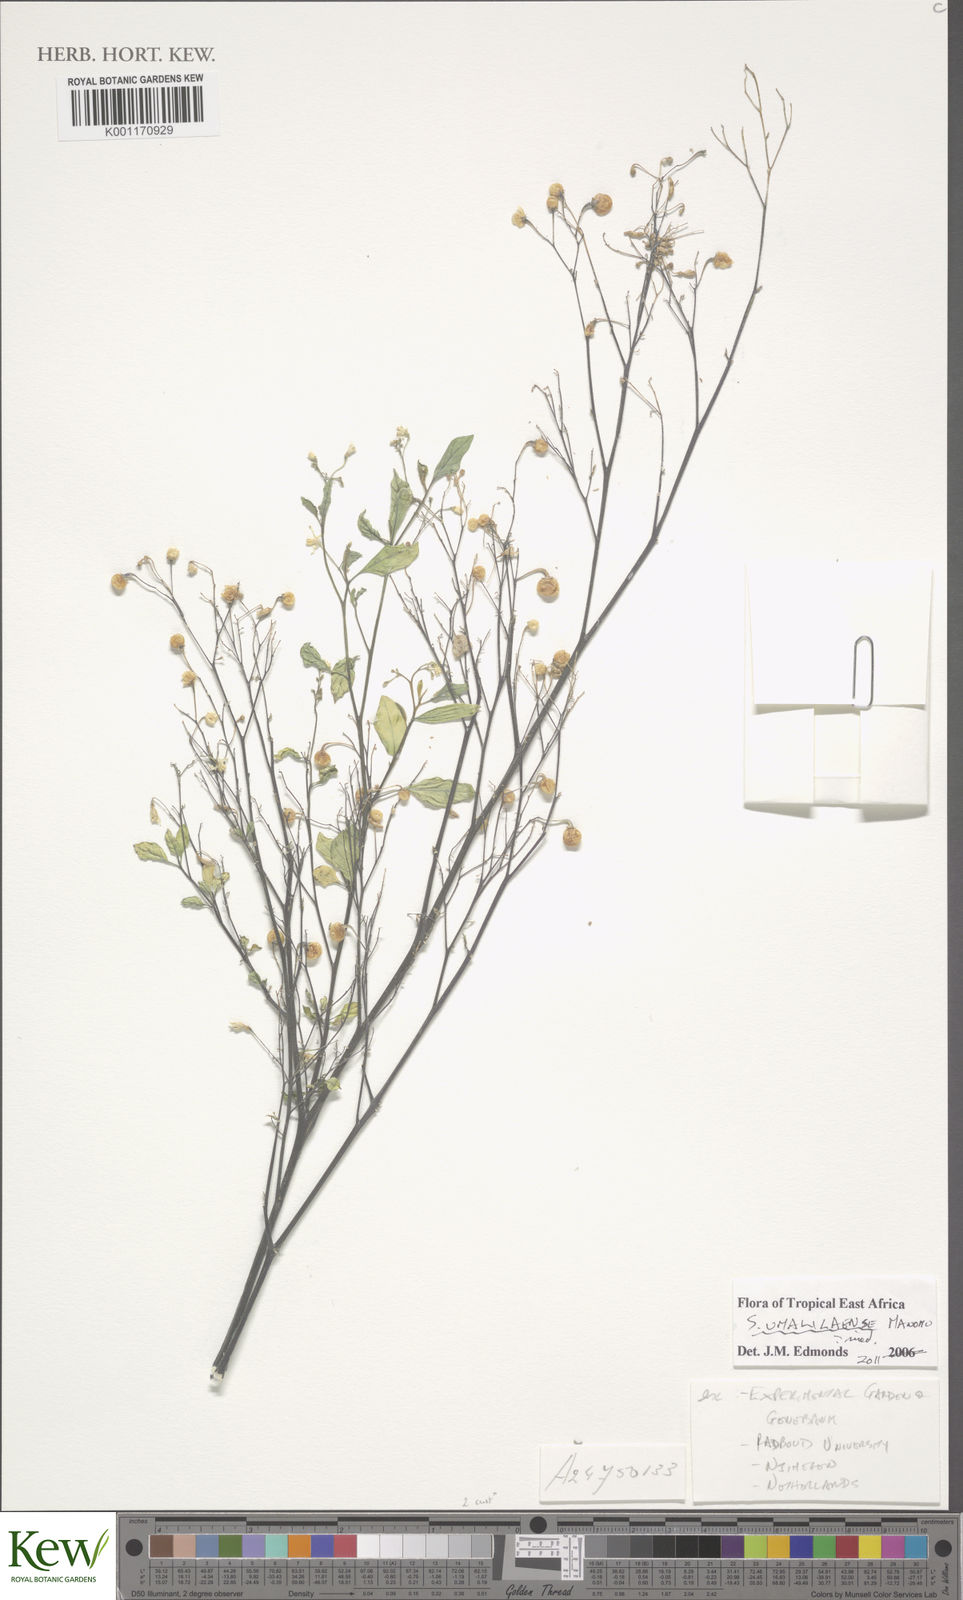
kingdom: Plantae
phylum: Tracheophyta
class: Magnoliopsida
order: Solanales
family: Solanaceae
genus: Solanum
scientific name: Solanum umalilaense
